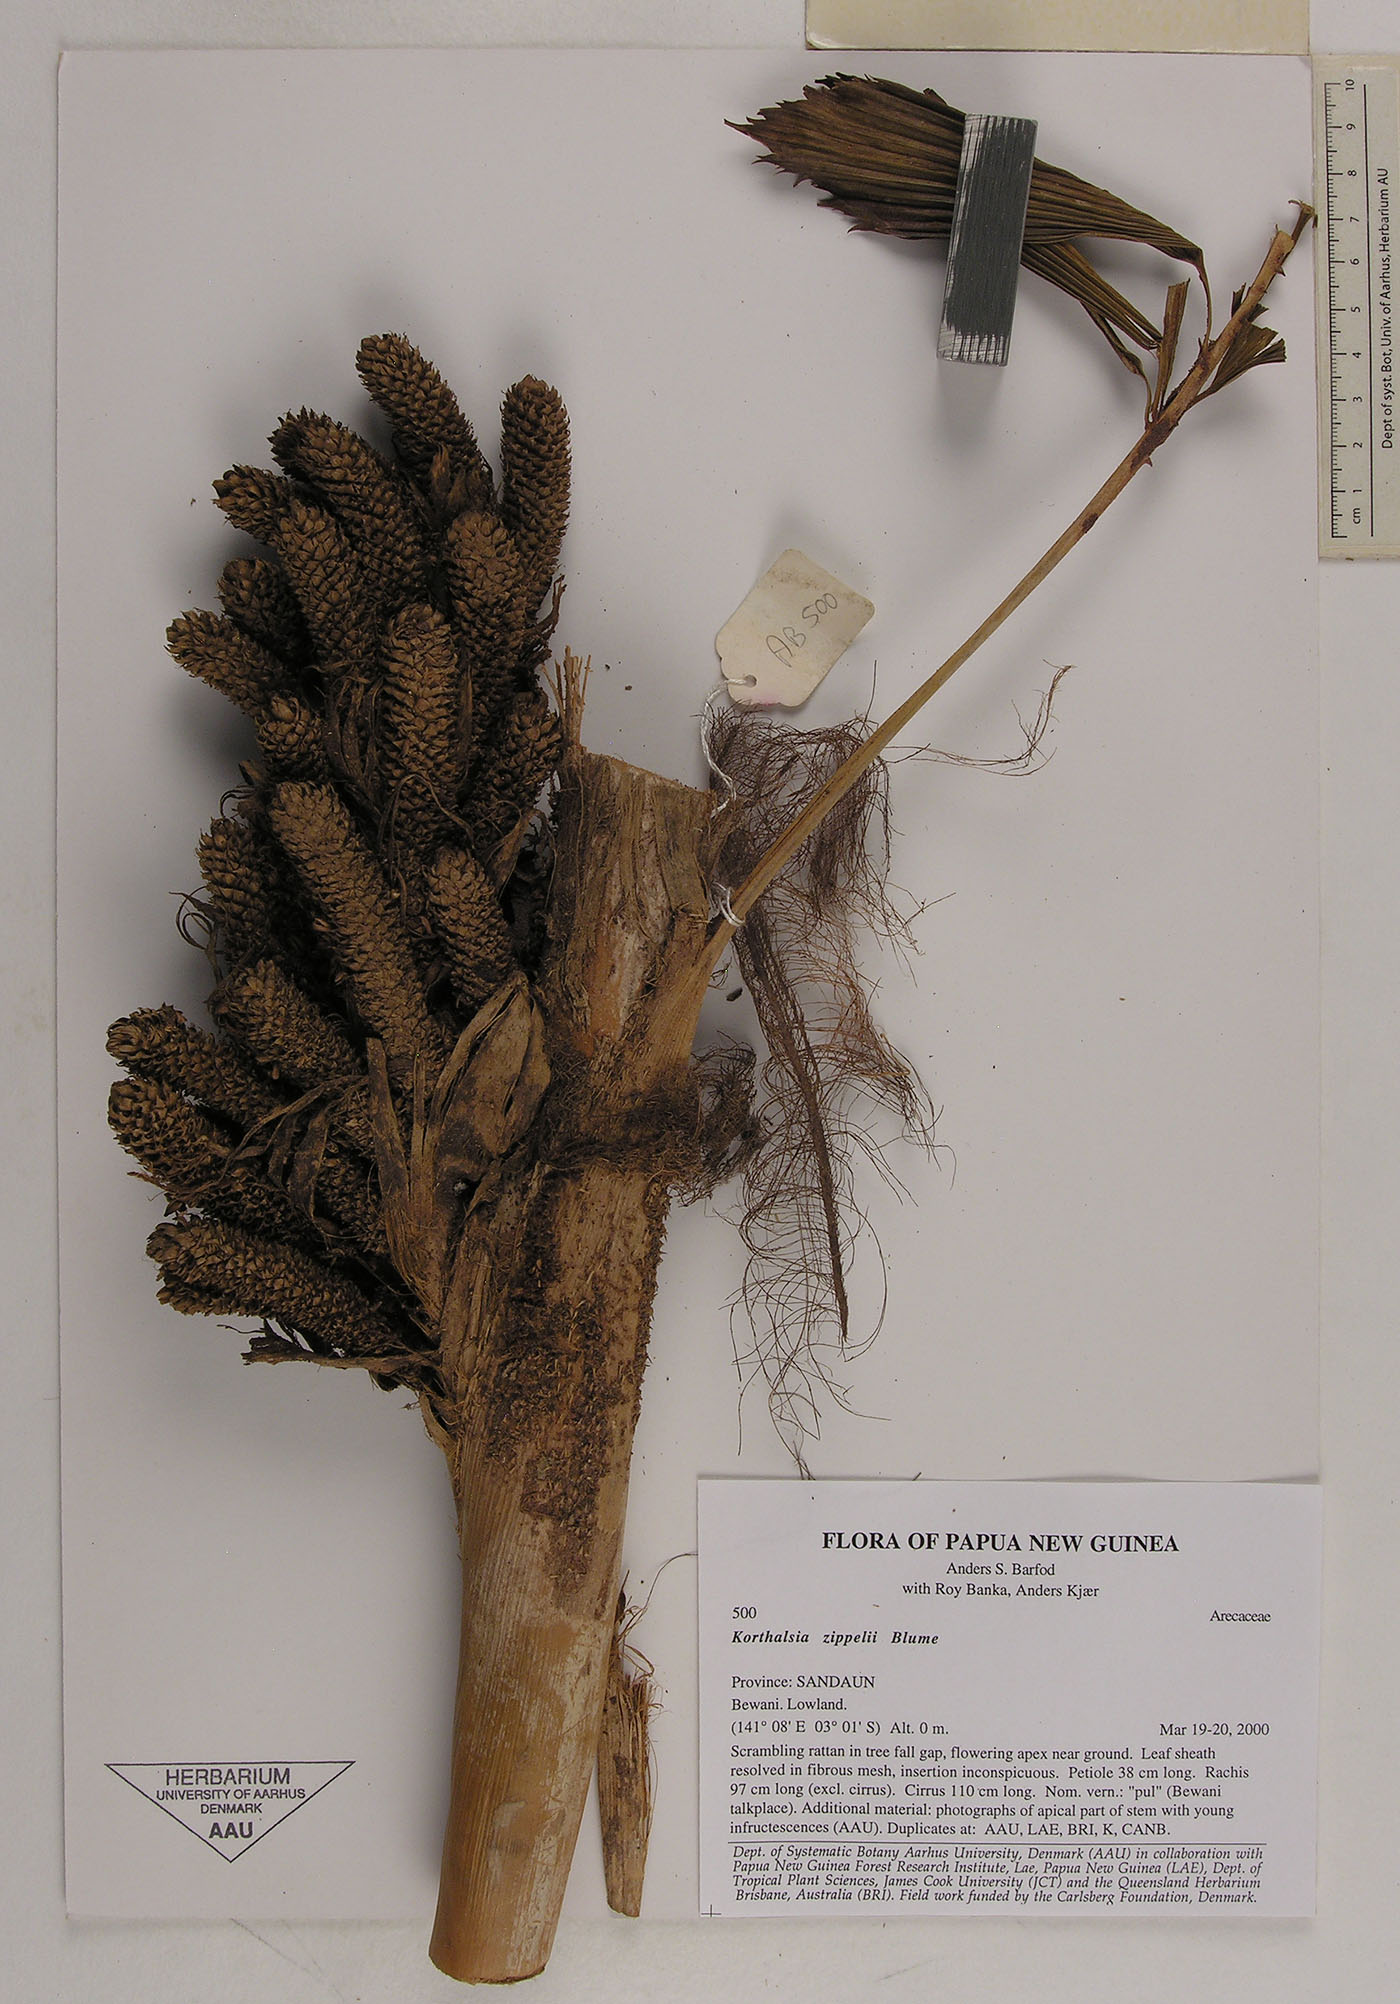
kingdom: Plantae
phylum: Tracheophyta
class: Liliopsida
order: Arecales
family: Arecaceae
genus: Korthalsia
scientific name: Korthalsia zippelii
